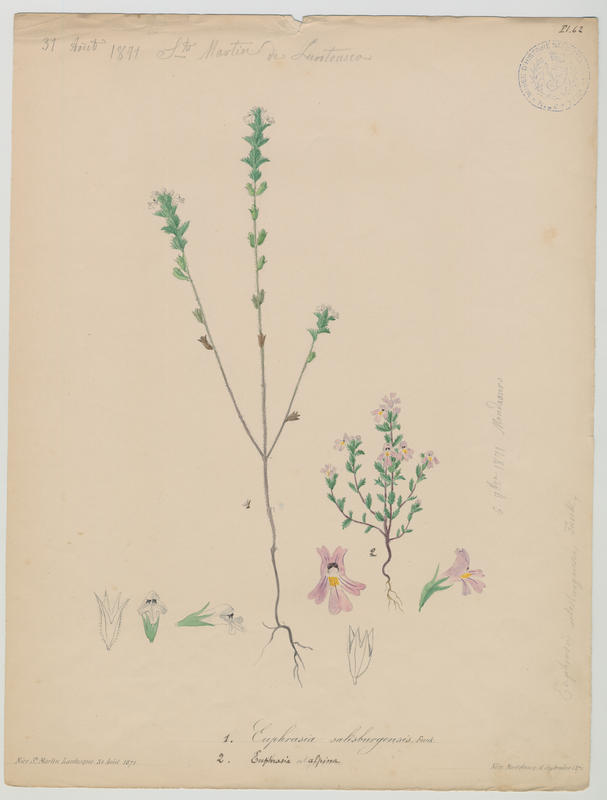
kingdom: Plantae
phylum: Tracheophyta
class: Magnoliopsida
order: Lamiales
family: Orobanchaceae
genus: Euphrasia
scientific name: Euphrasia alpina
